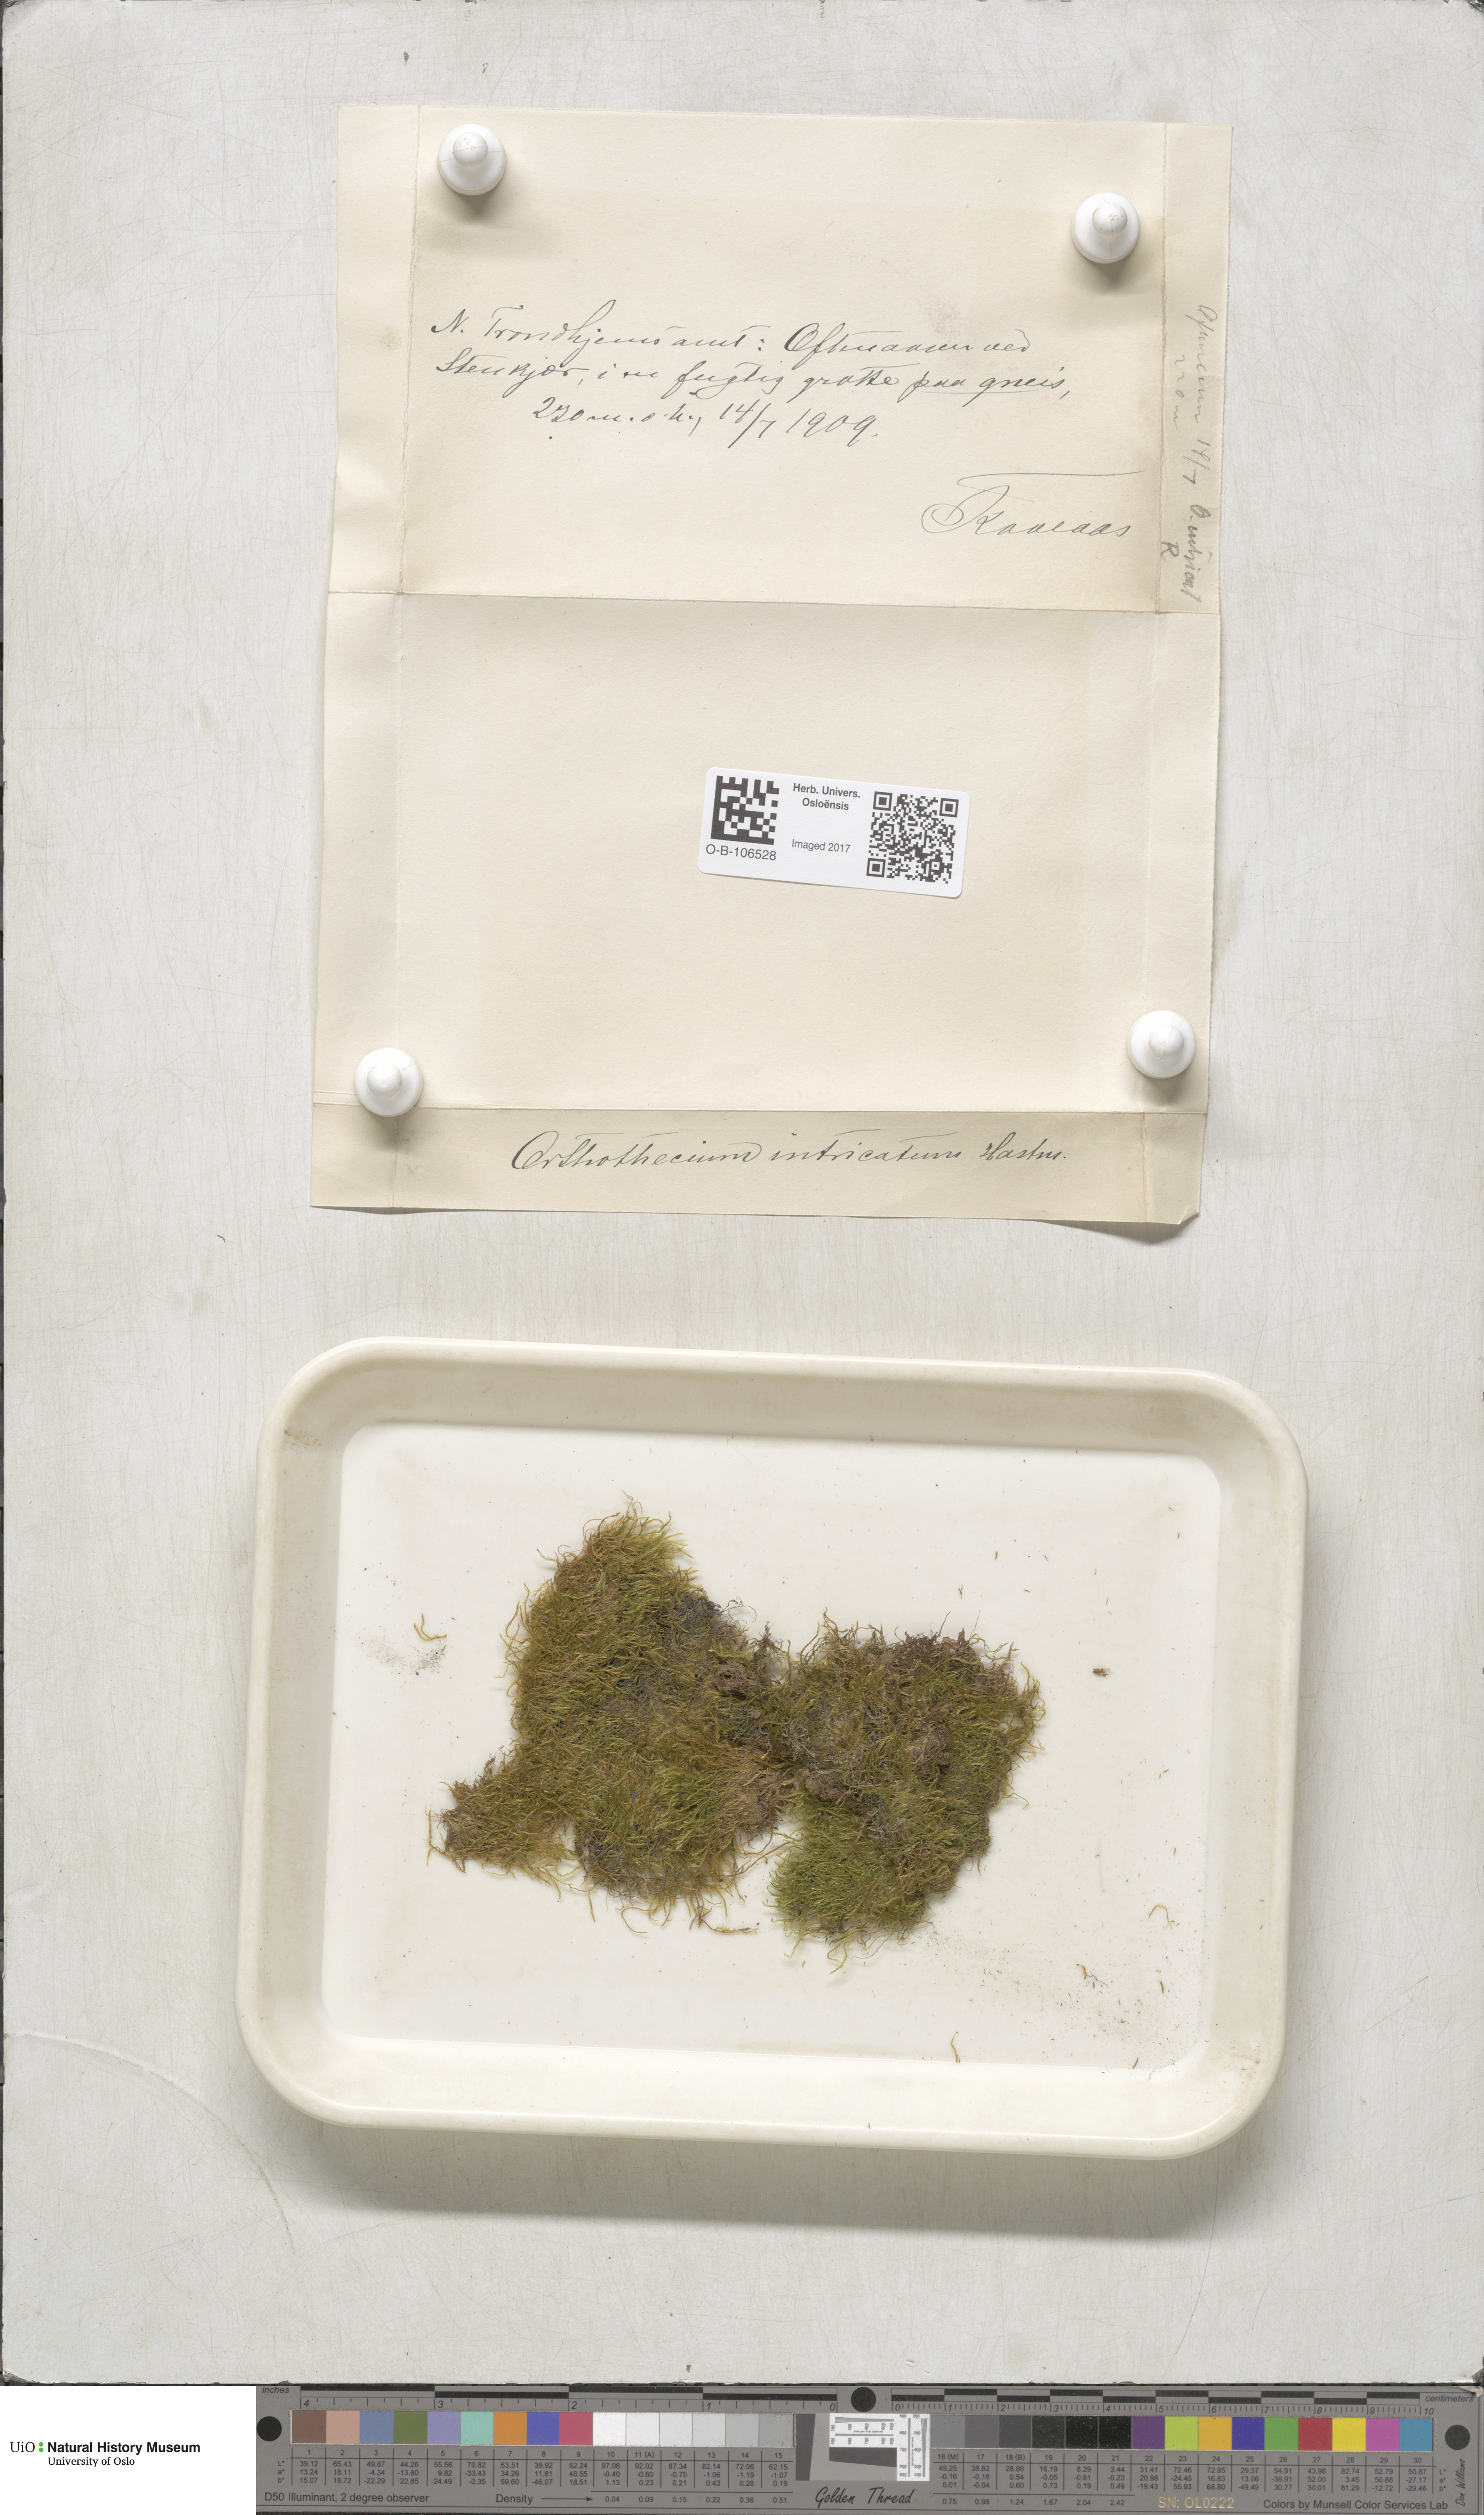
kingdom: Plantae
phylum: Bryophyta
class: Bryopsida
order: Hypnales
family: Plagiotheciaceae
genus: Orthothecium
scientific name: Orthothecium intricatum
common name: Fine-leaved erect-capsule moss
